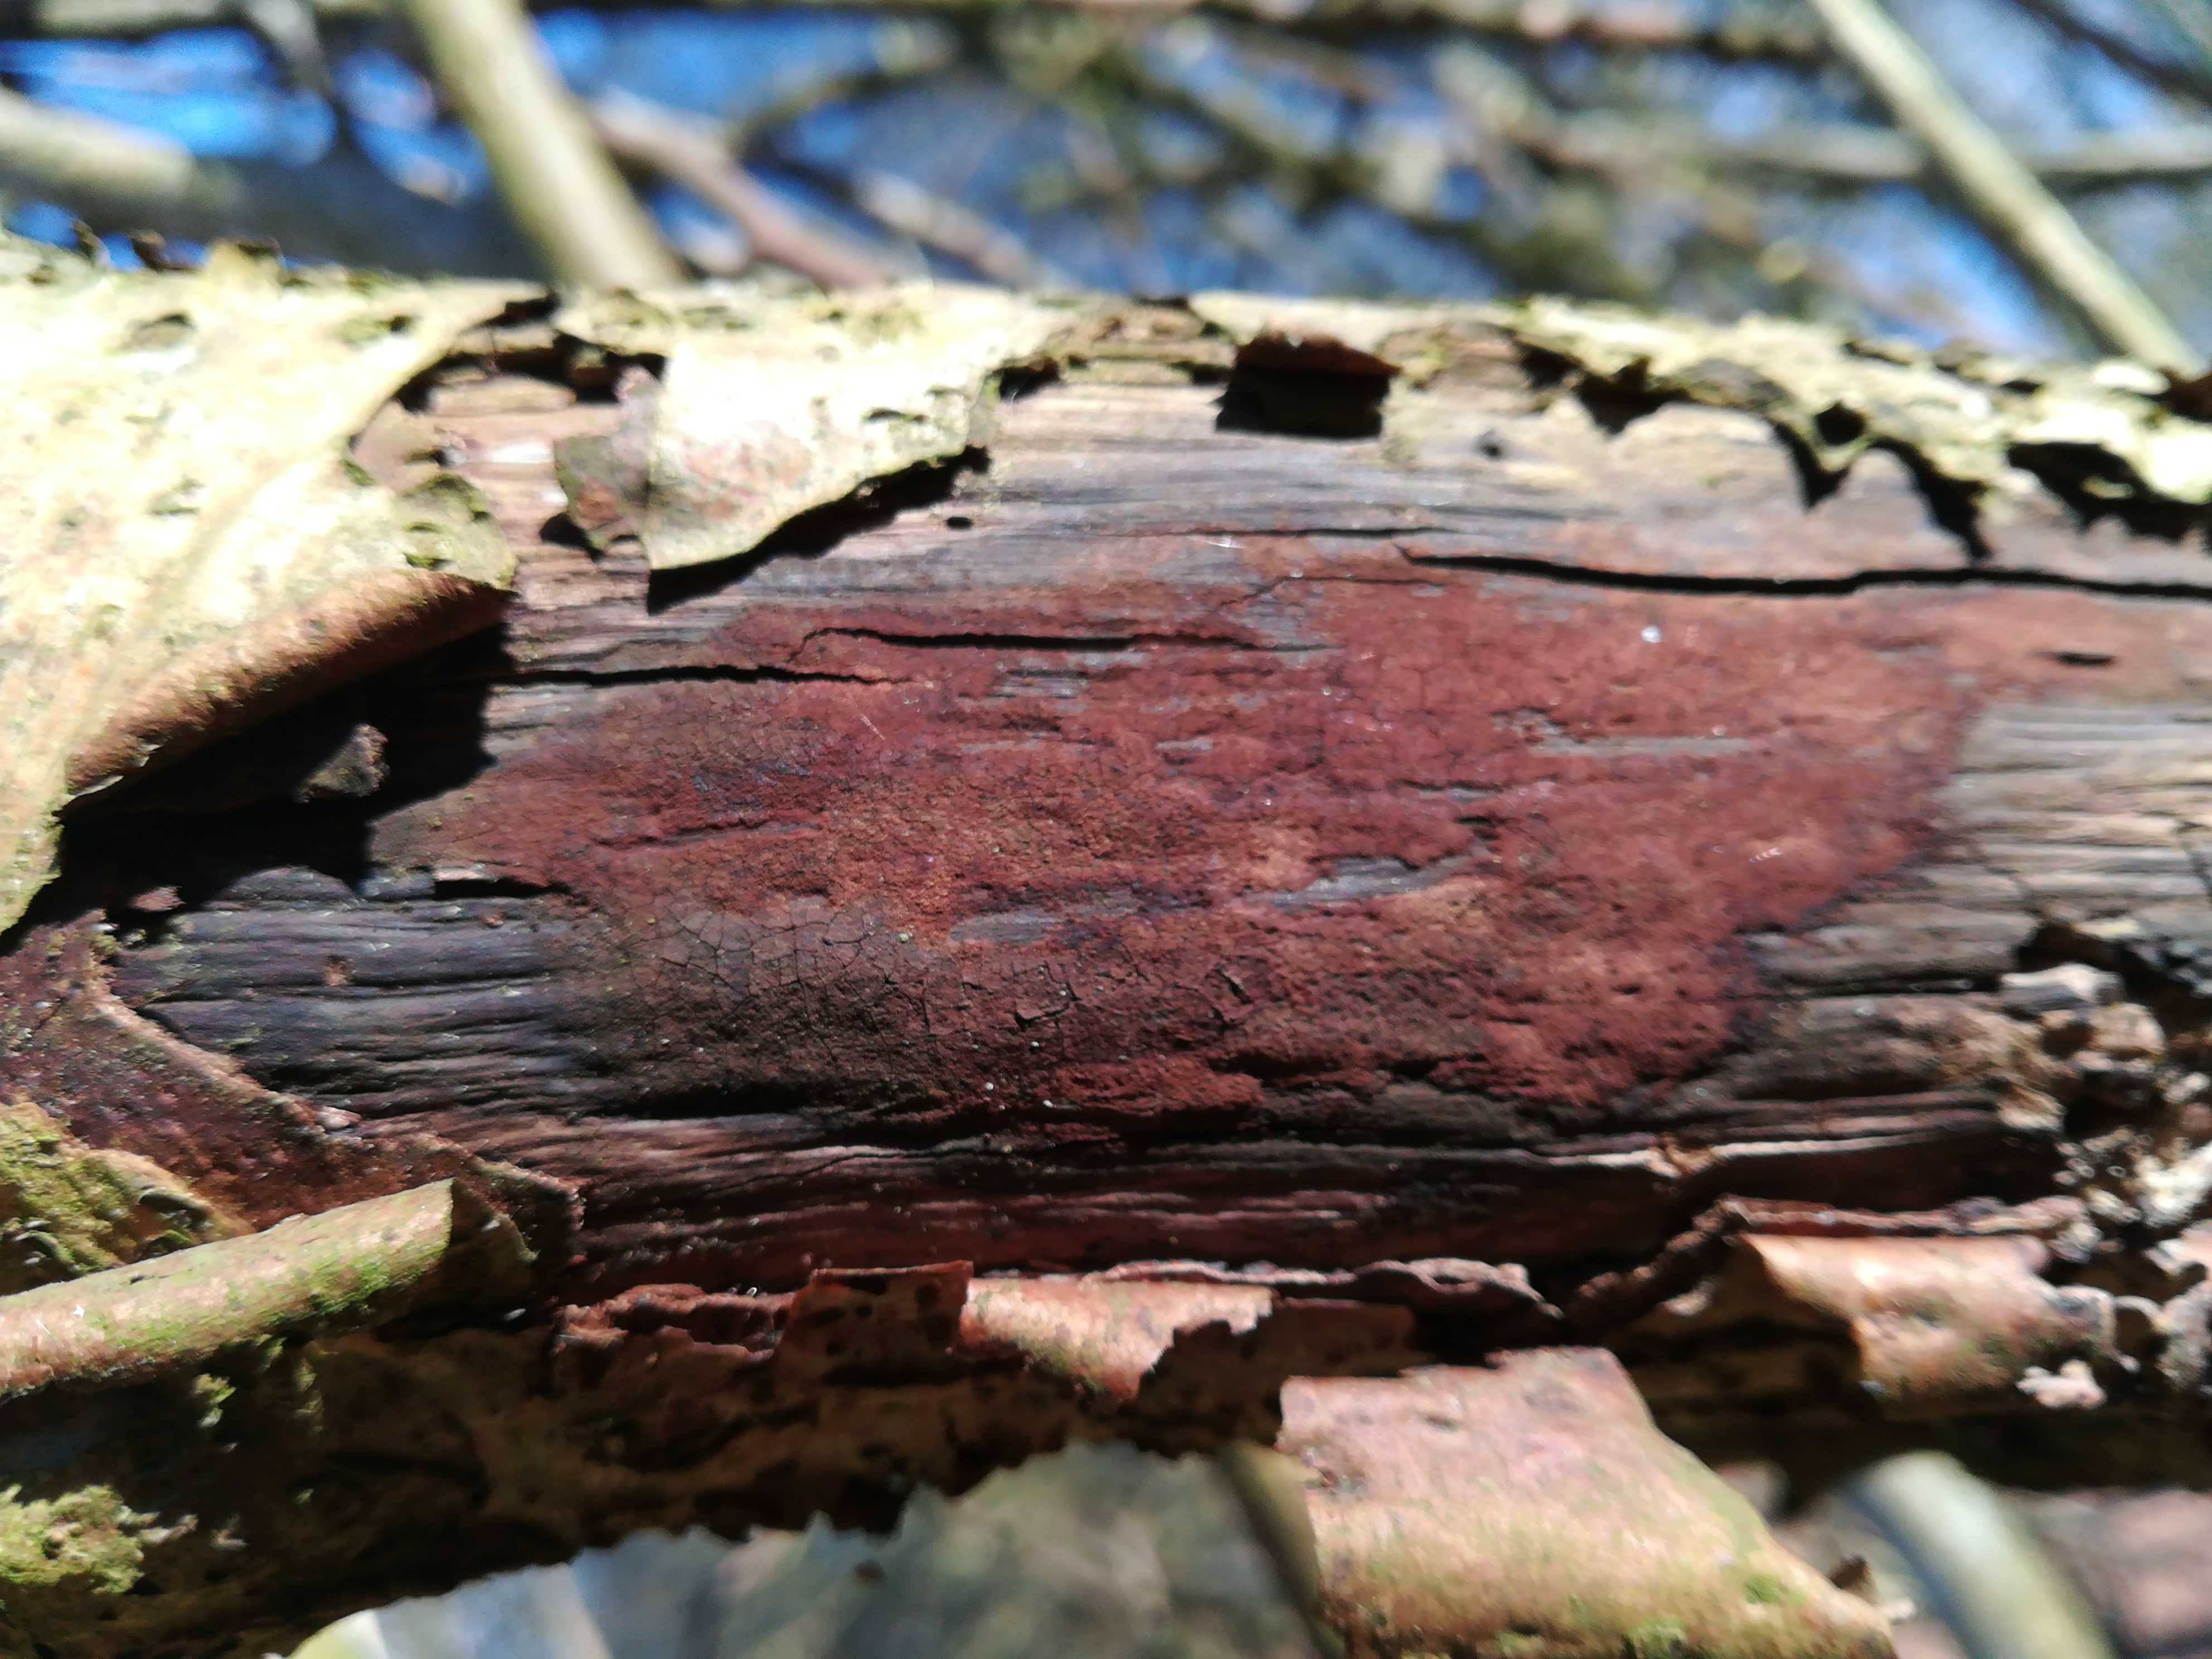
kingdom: Fungi
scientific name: Fungi
